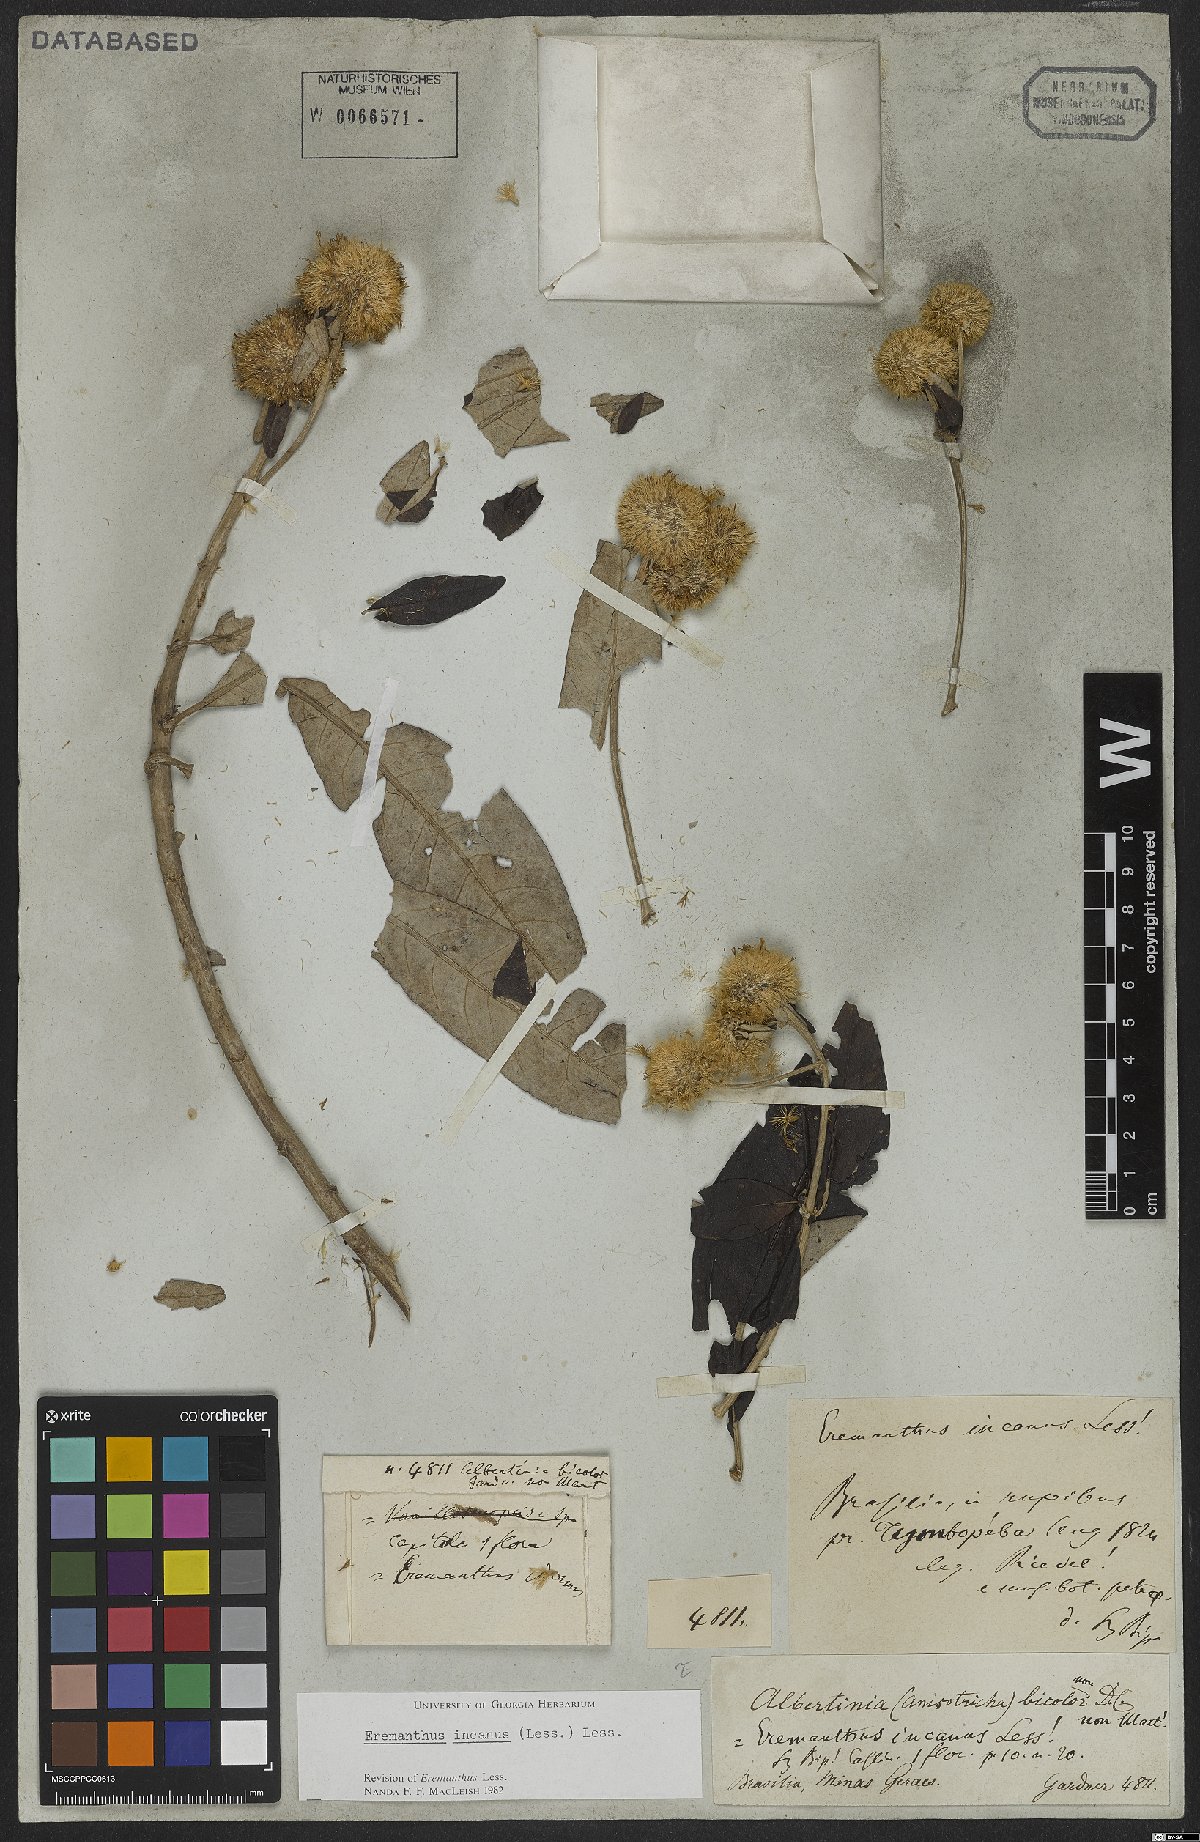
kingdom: Plantae
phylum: Tracheophyta
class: Magnoliopsida
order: Asterales
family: Asteraceae
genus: Eremanthus
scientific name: Eremanthus incanus
